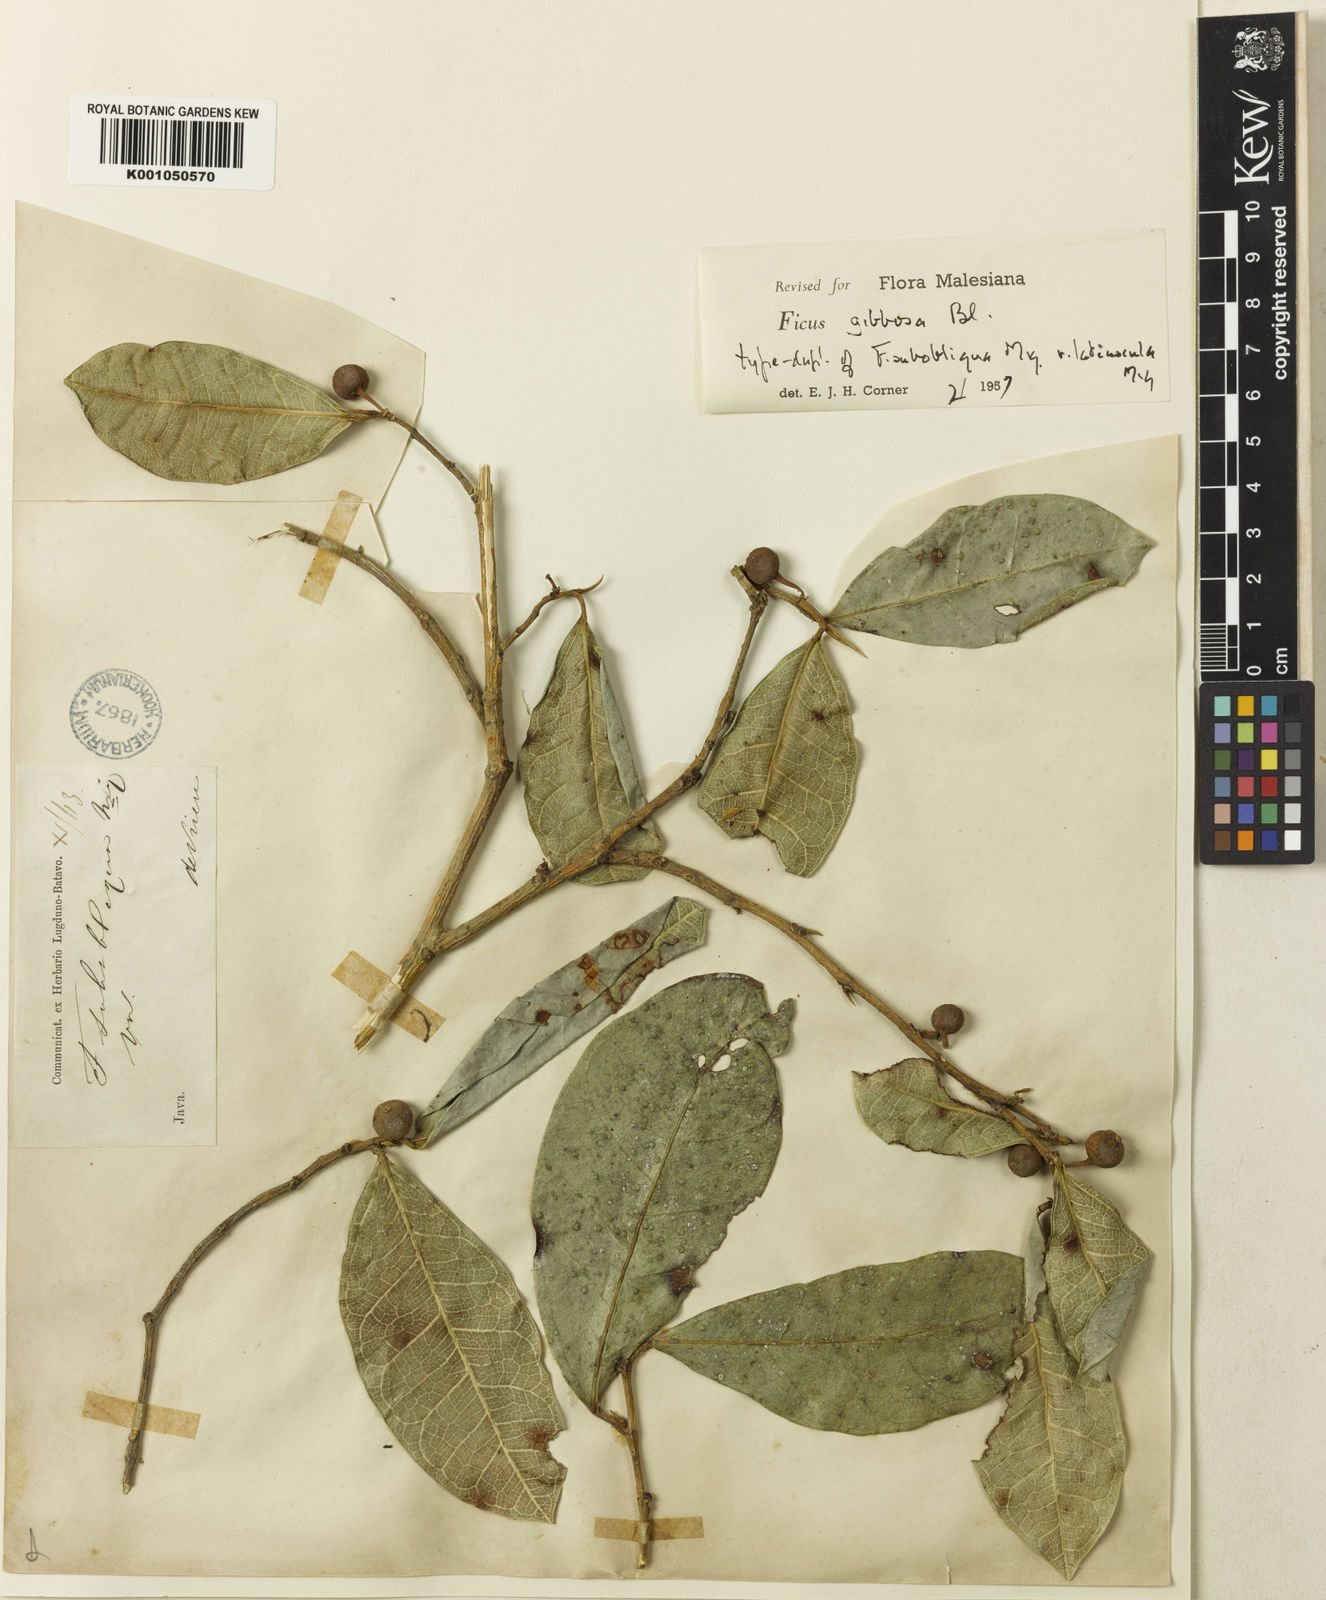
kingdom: Plantae
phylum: Tracheophyta
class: Magnoliopsida
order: Rosales
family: Moraceae
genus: Ficus
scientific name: Ficus tinctoria
